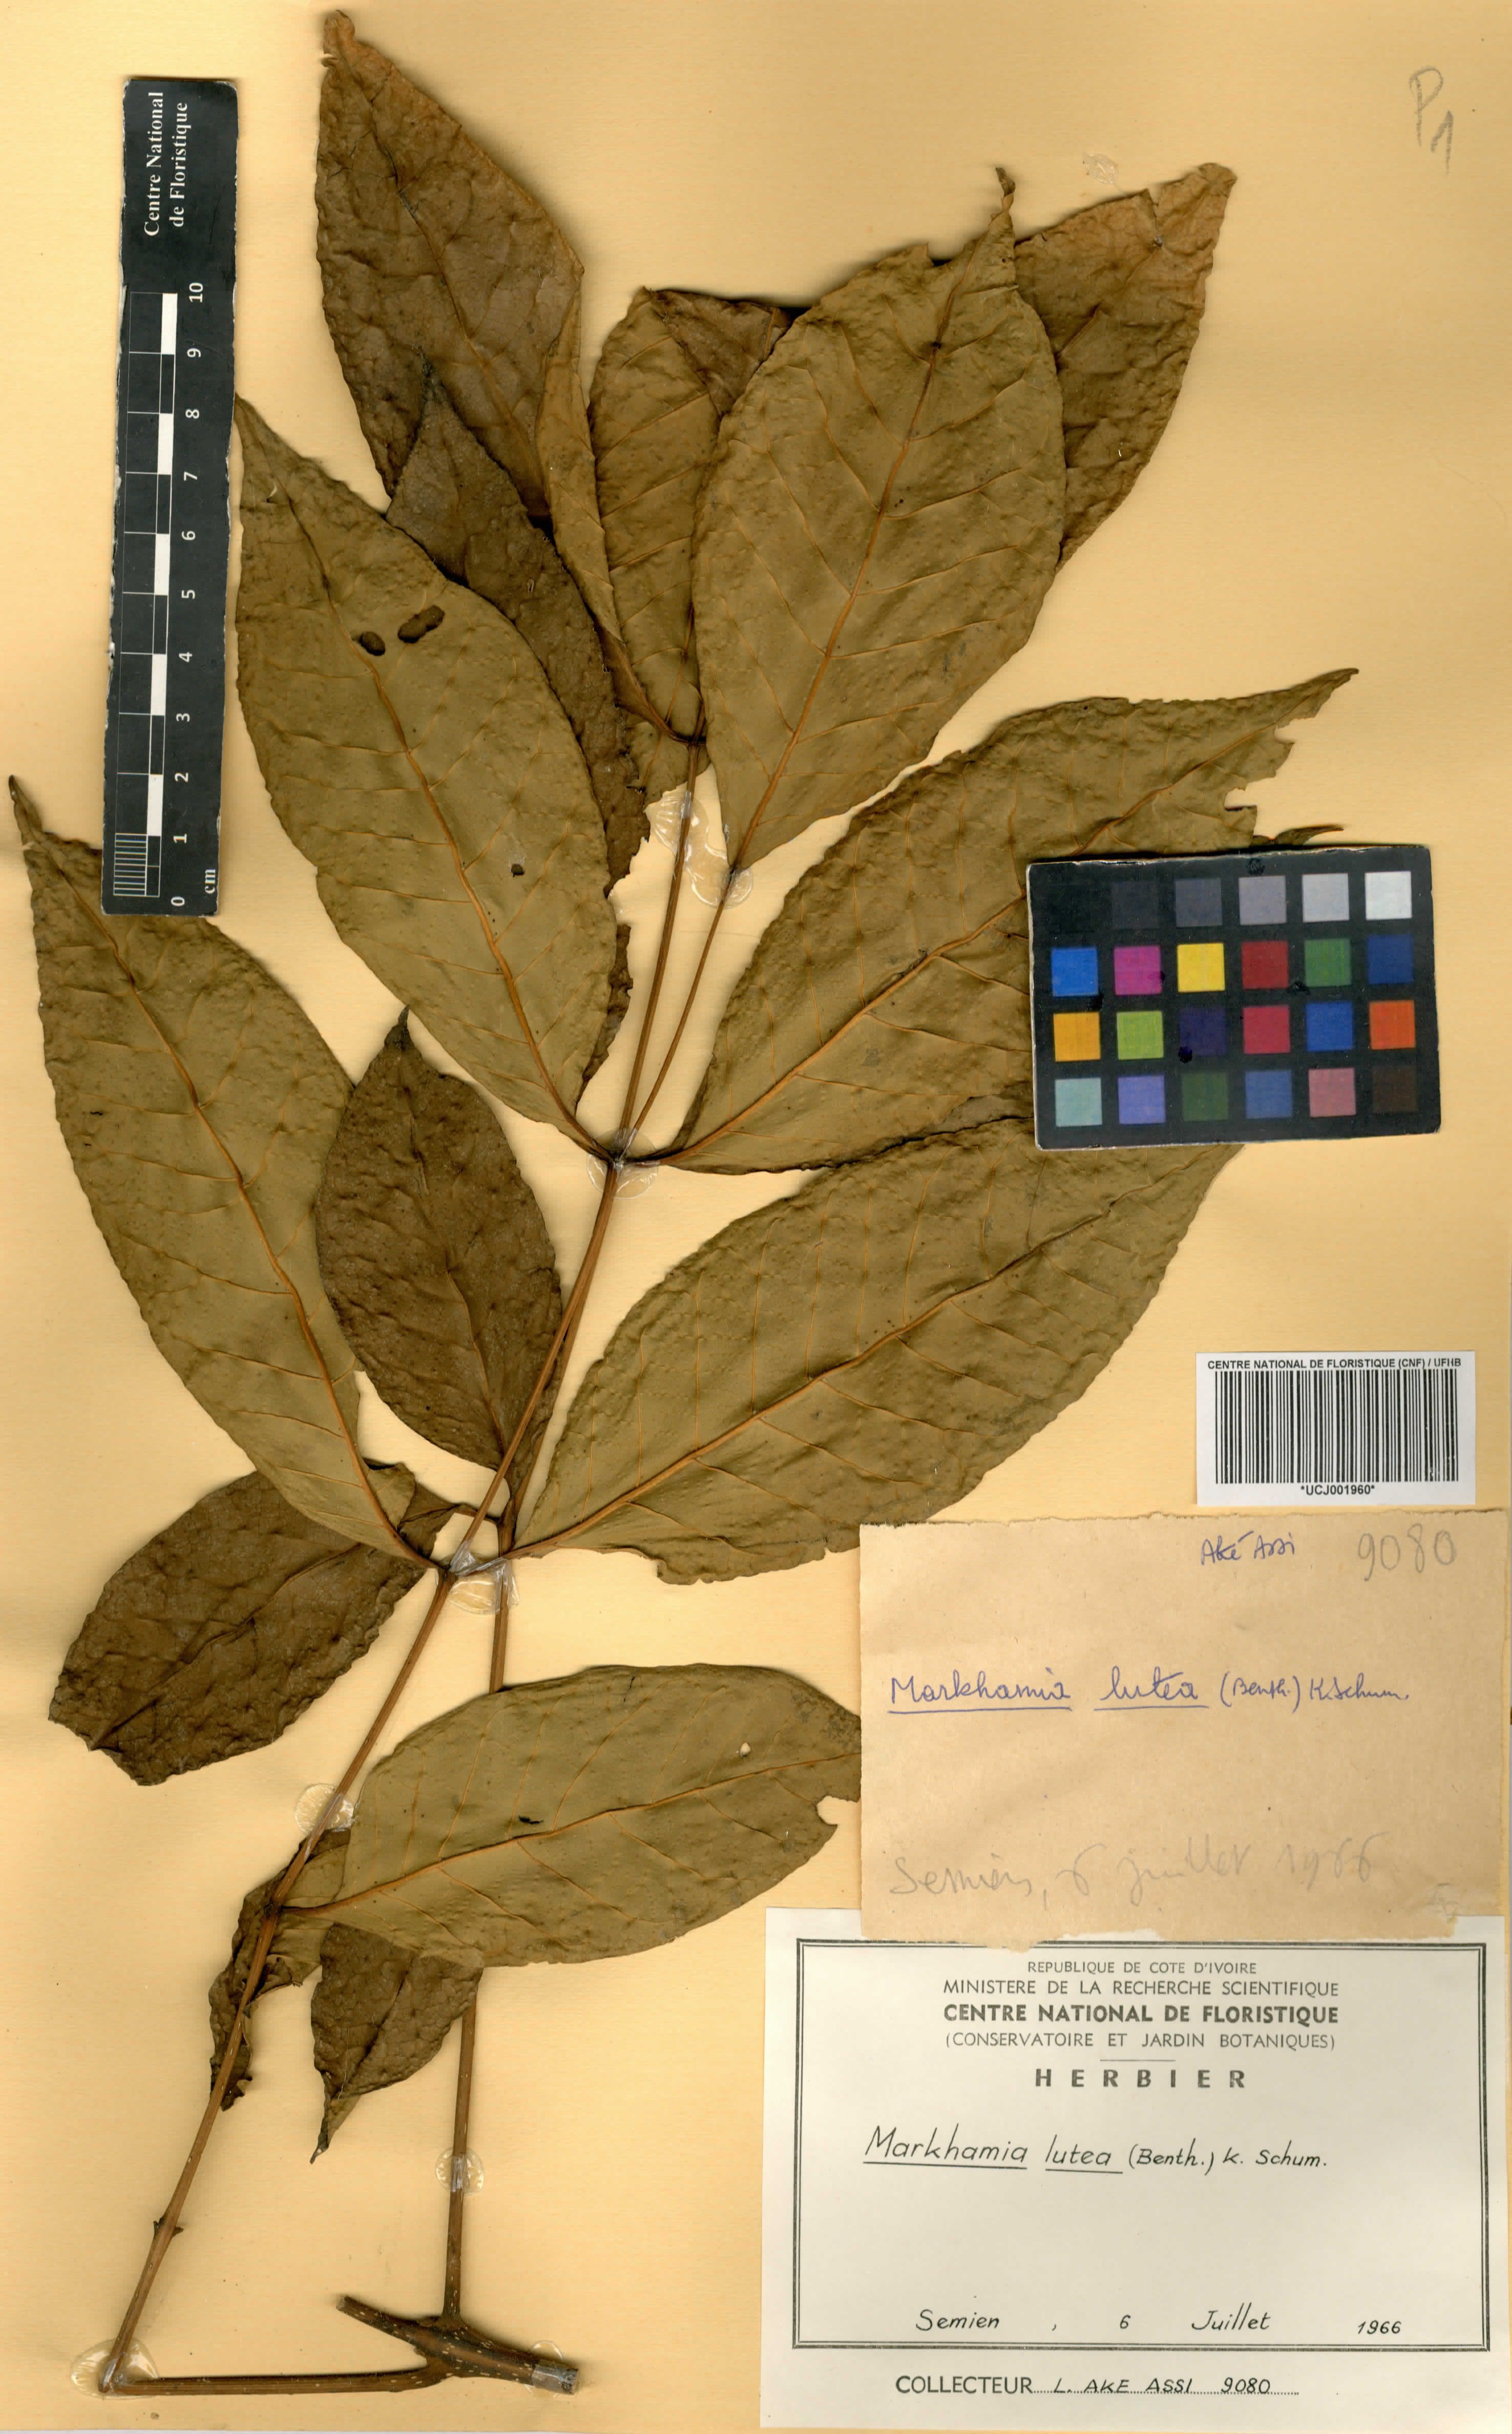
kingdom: Plantae
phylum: Tracheophyta
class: Magnoliopsida
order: Lamiales
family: Bignoniaceae
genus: Markhamia
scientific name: Markhamia lutea
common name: Siala
